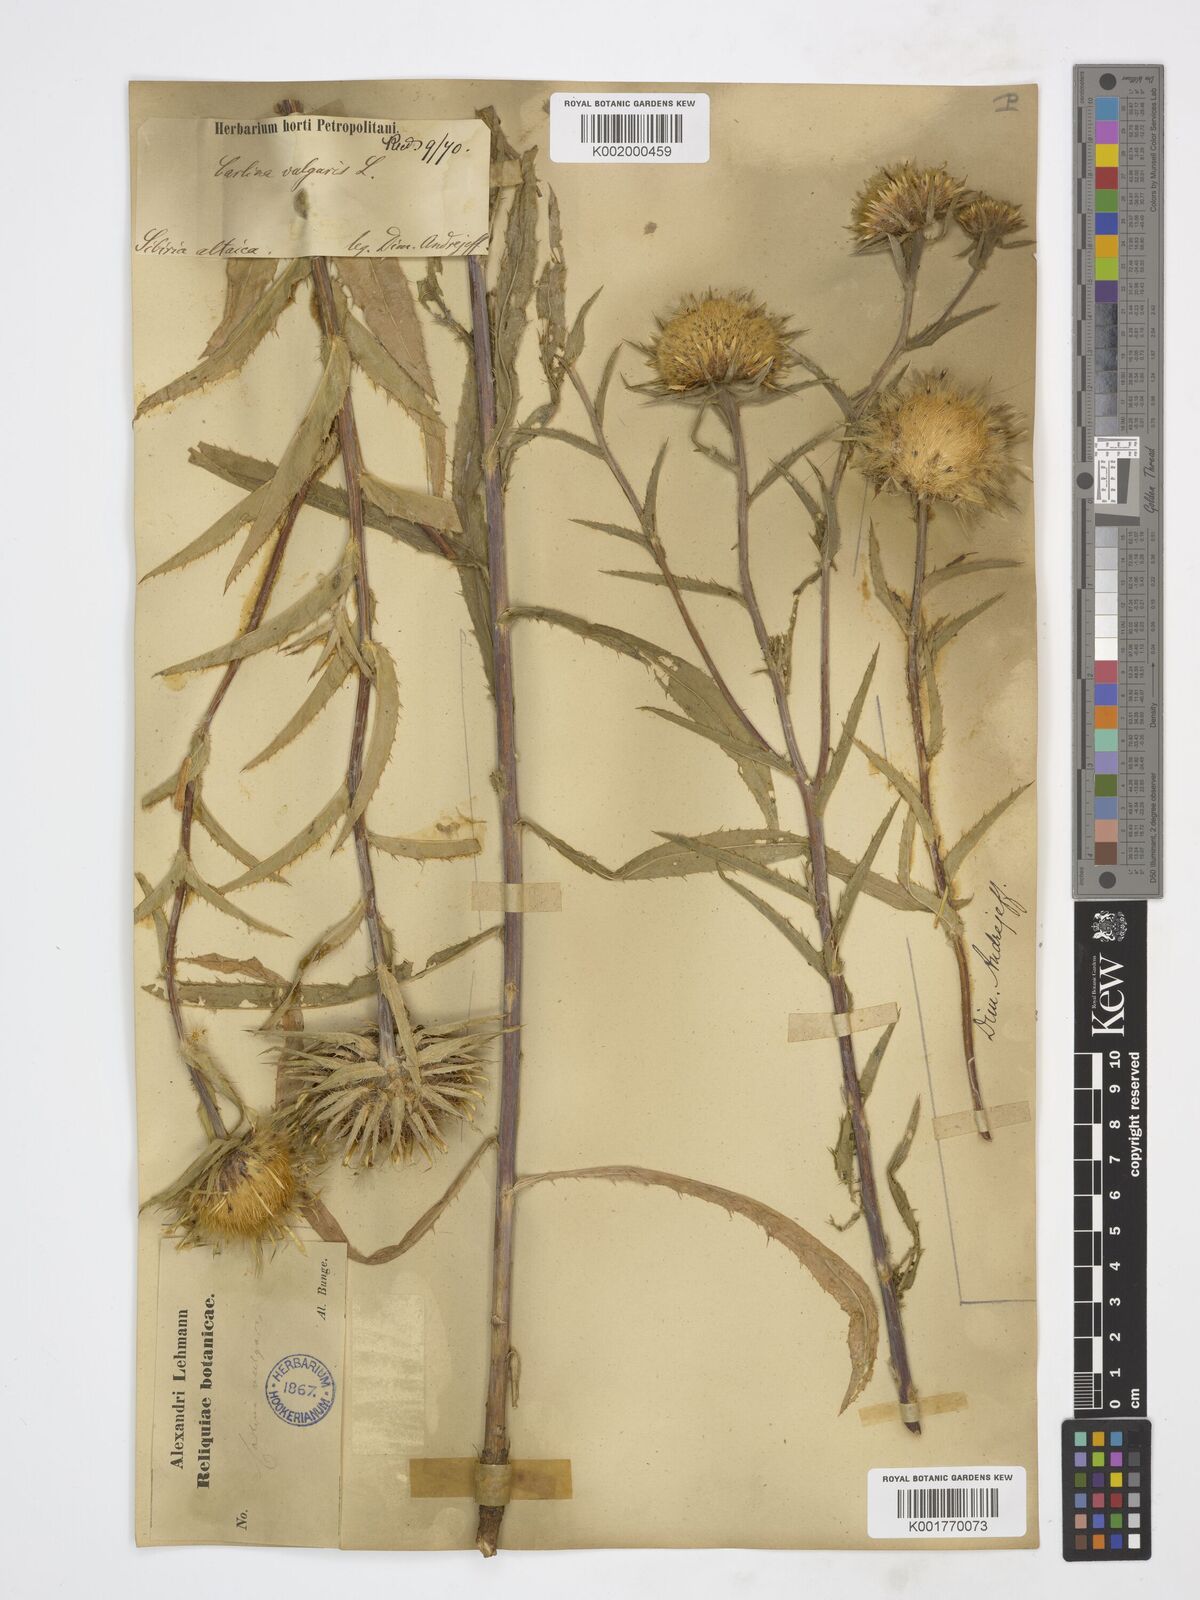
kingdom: Plantae
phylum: Tracheophyta
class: Magnoliopsida
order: Asterales
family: Asteraceae
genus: Carlina
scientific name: Carlina biebersteinii
